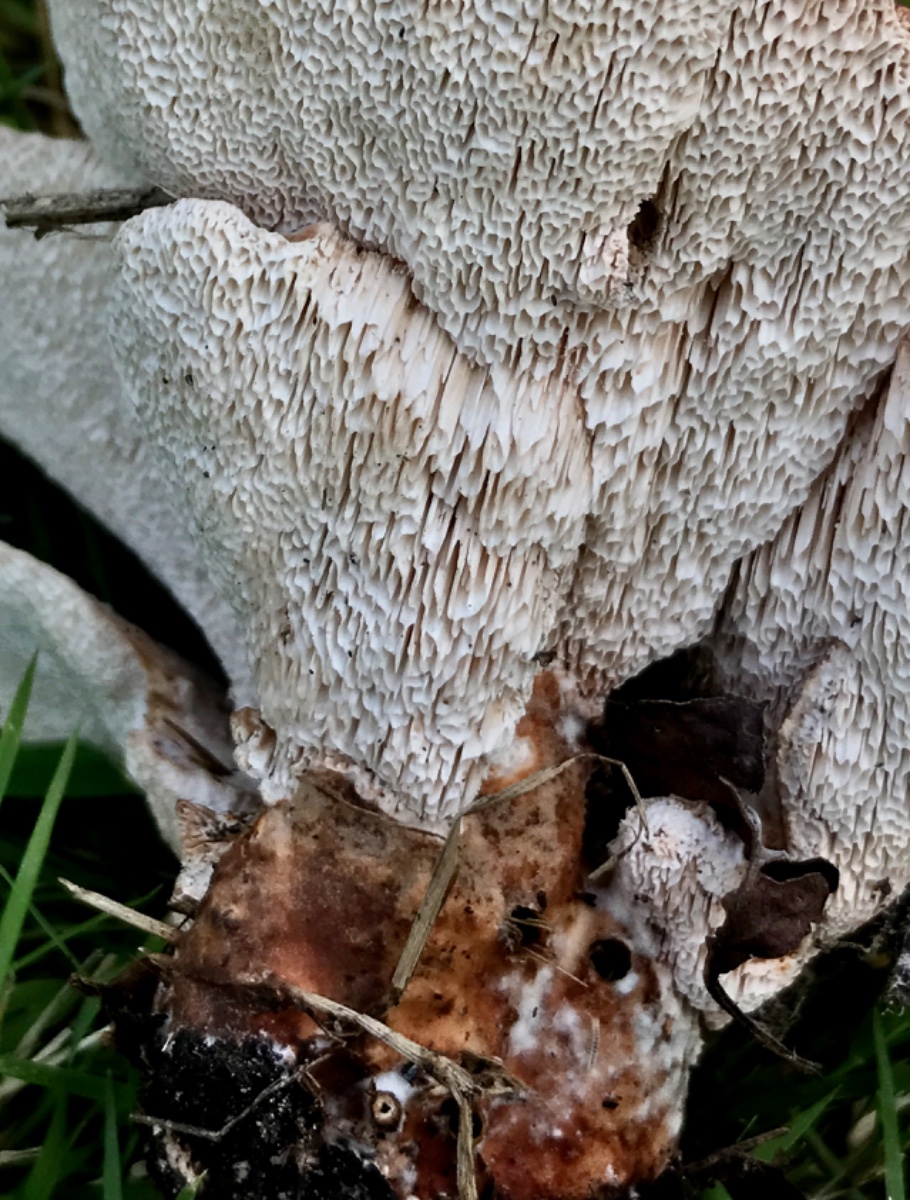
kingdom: Fungi
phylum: Basidiomycota
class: Agaricomycetes
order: Polyporales
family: Podoscyphaceae
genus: Abortiporus
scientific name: Abortiporus biennis
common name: rødmende pjalteporesvamp
